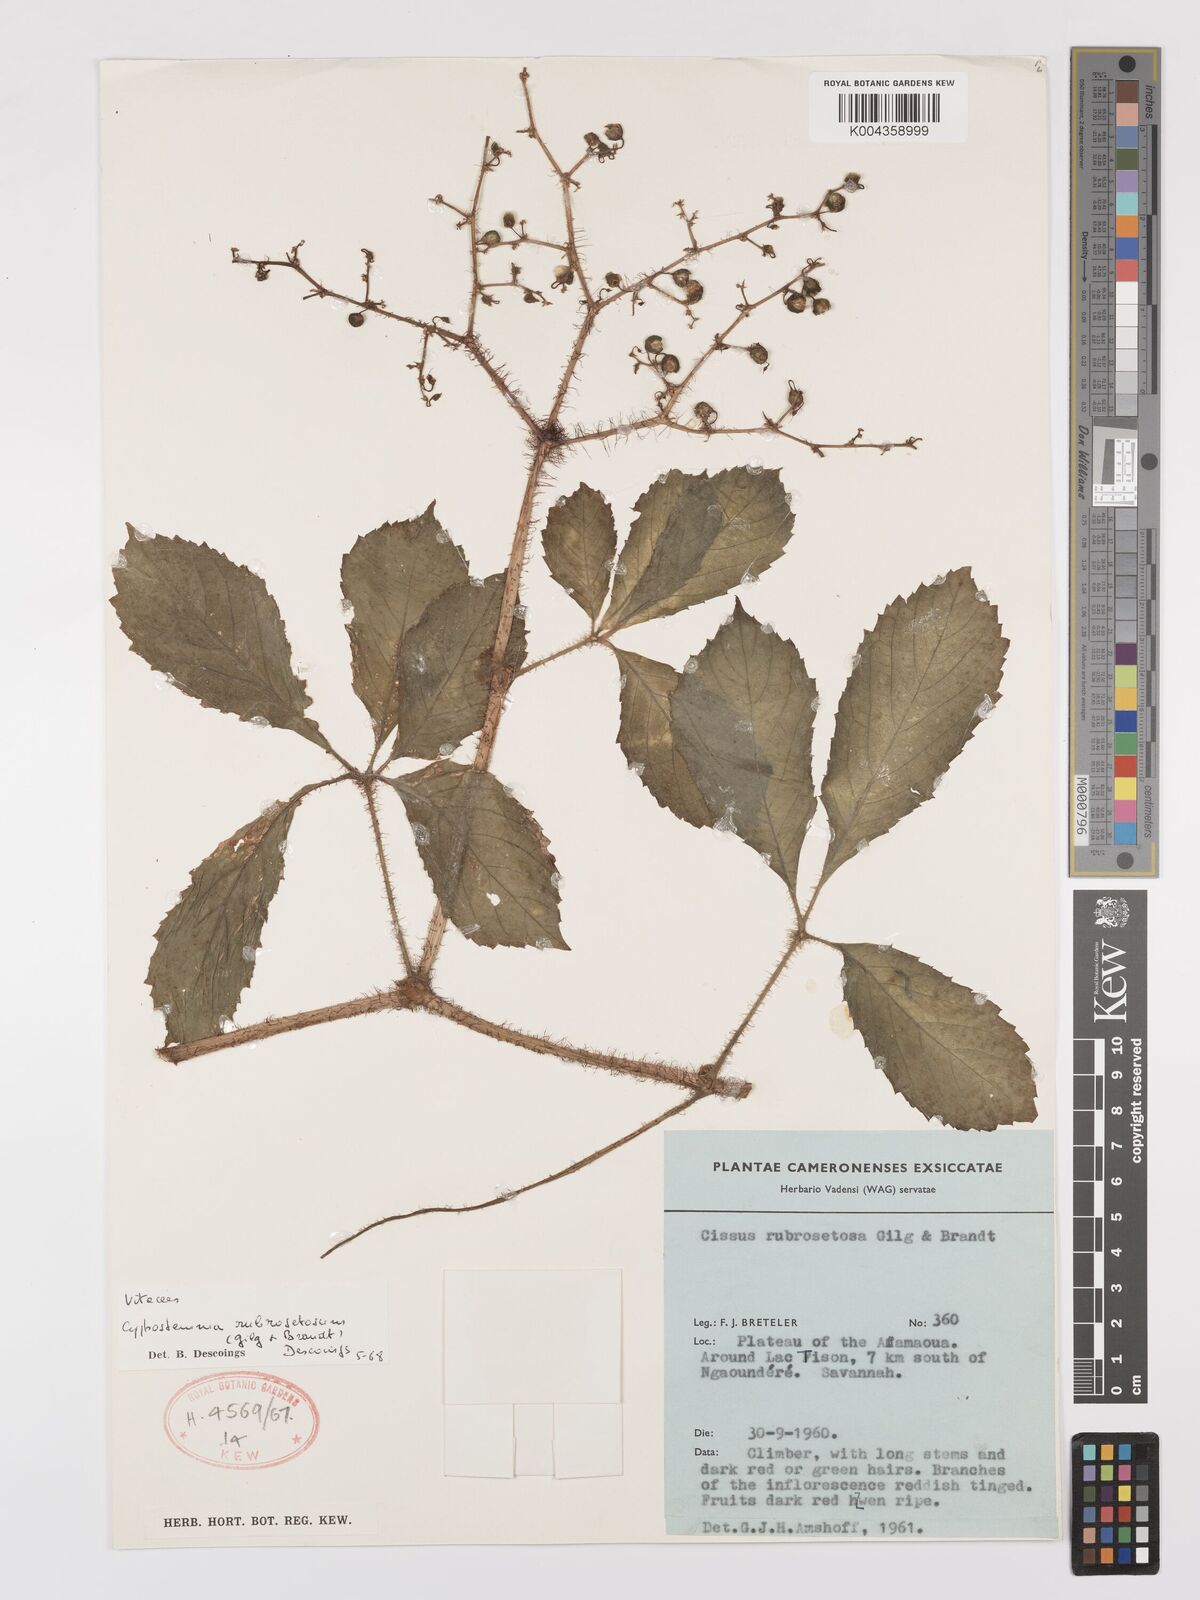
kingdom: Plantae
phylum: Tracheophyta
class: Magnoliopsida
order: Vitales
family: Vitaceae
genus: Cyphostemma
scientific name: Cyphostemma rubrosetosum
